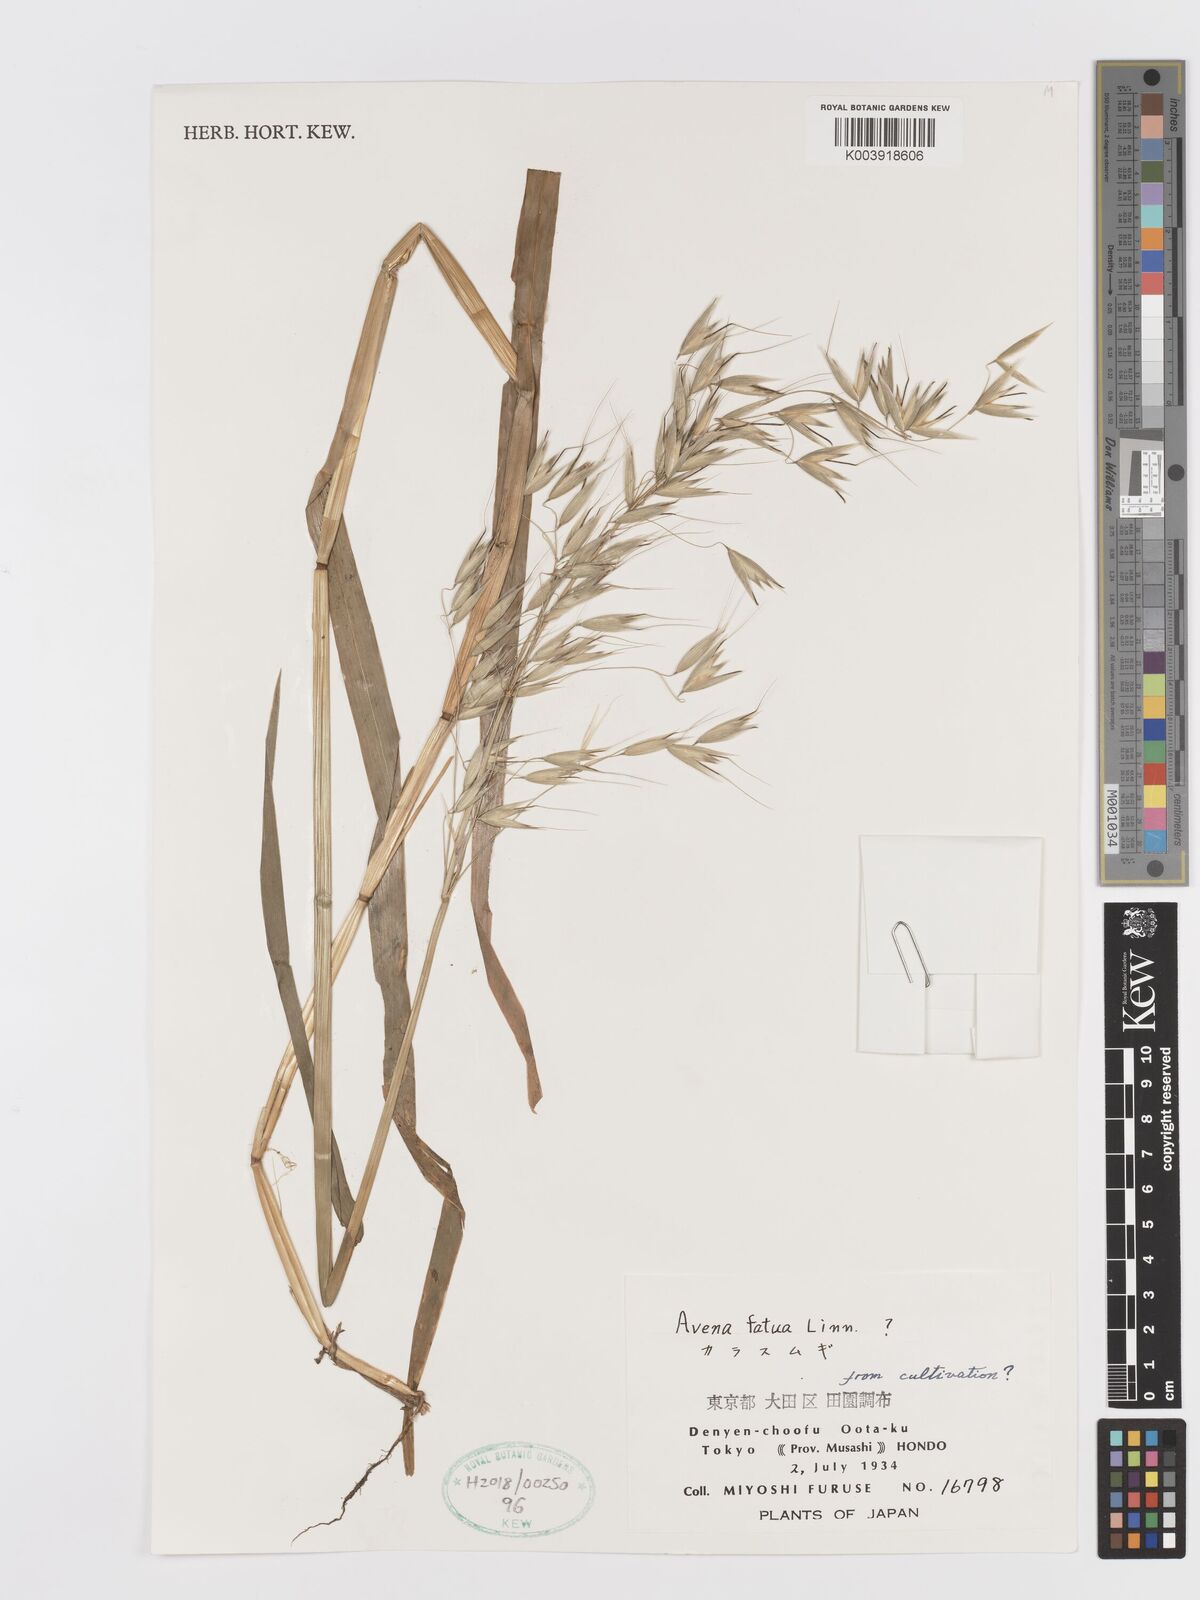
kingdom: Plantae
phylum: Tracheophyta
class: Liliopsida
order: Poales
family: Poaceae
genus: Avena
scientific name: Avena fatua
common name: Wild oat
